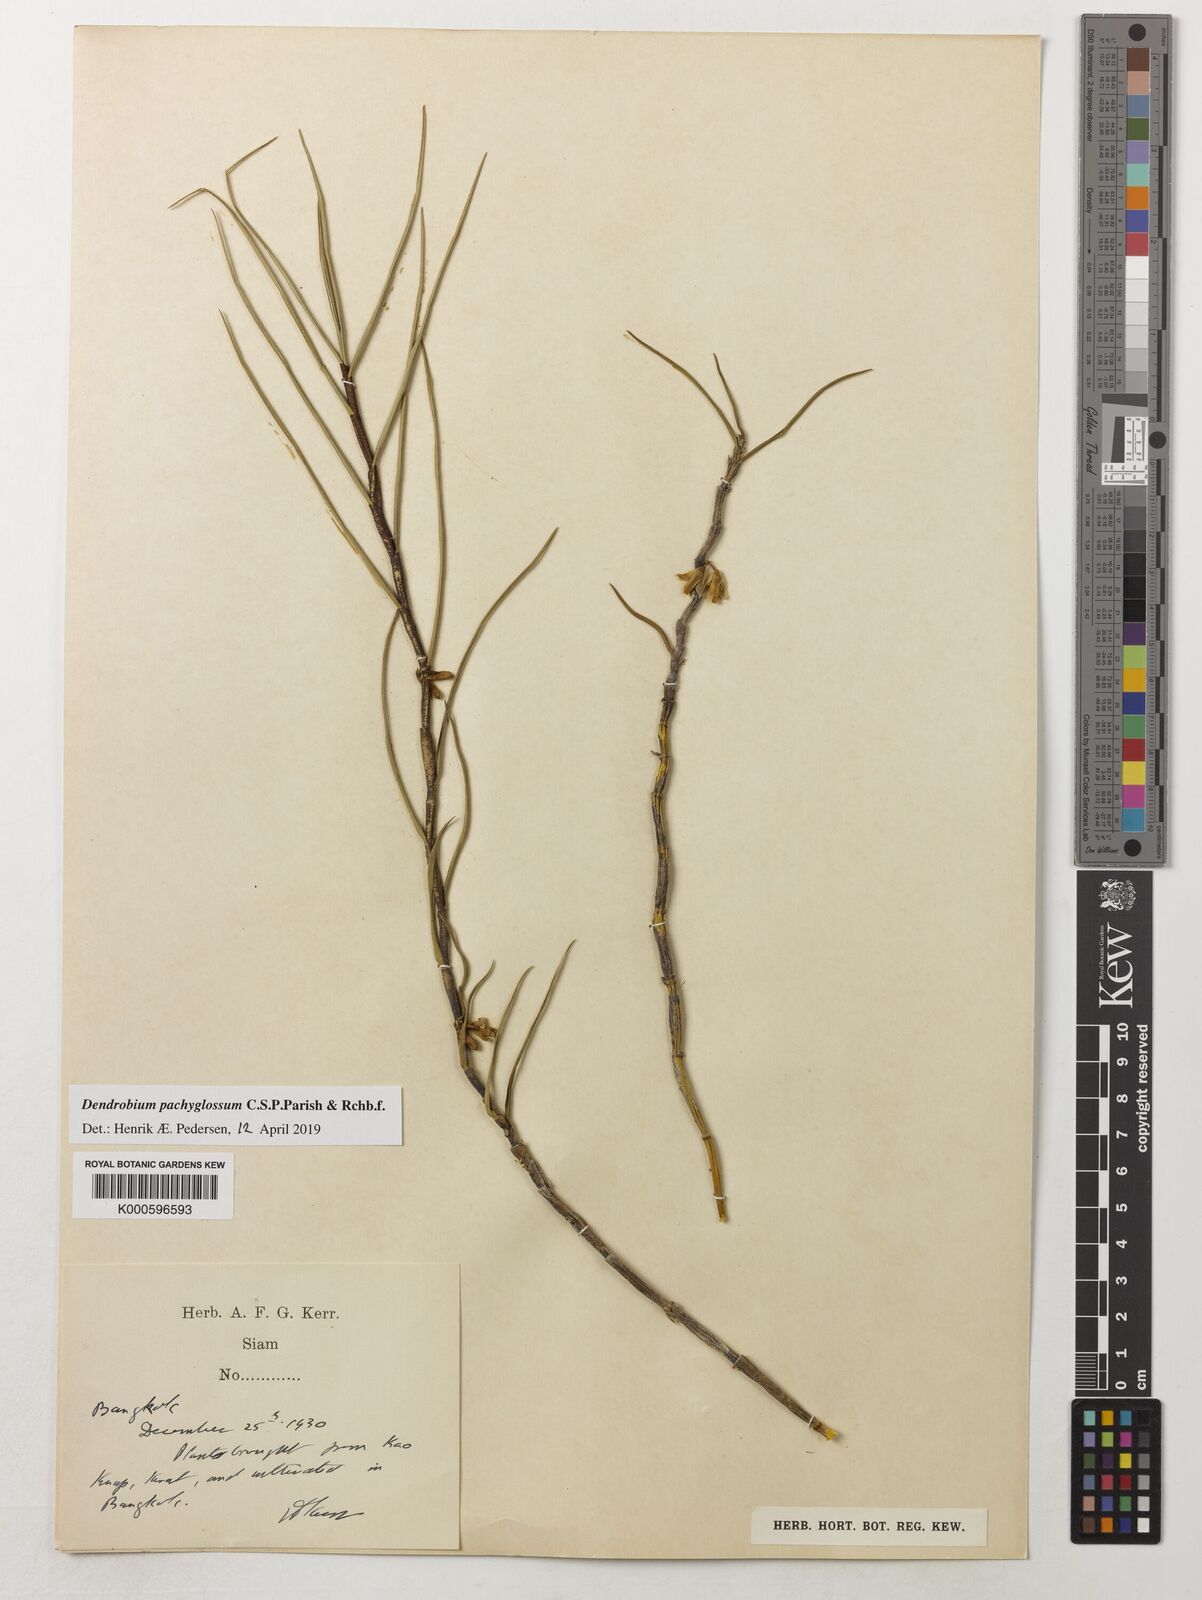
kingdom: Plantae
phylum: Tracheophyta
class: Liliopsida
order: Asparagales
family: Orchidaceae
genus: Dendrobium
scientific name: Dendrobium pachyglossum
